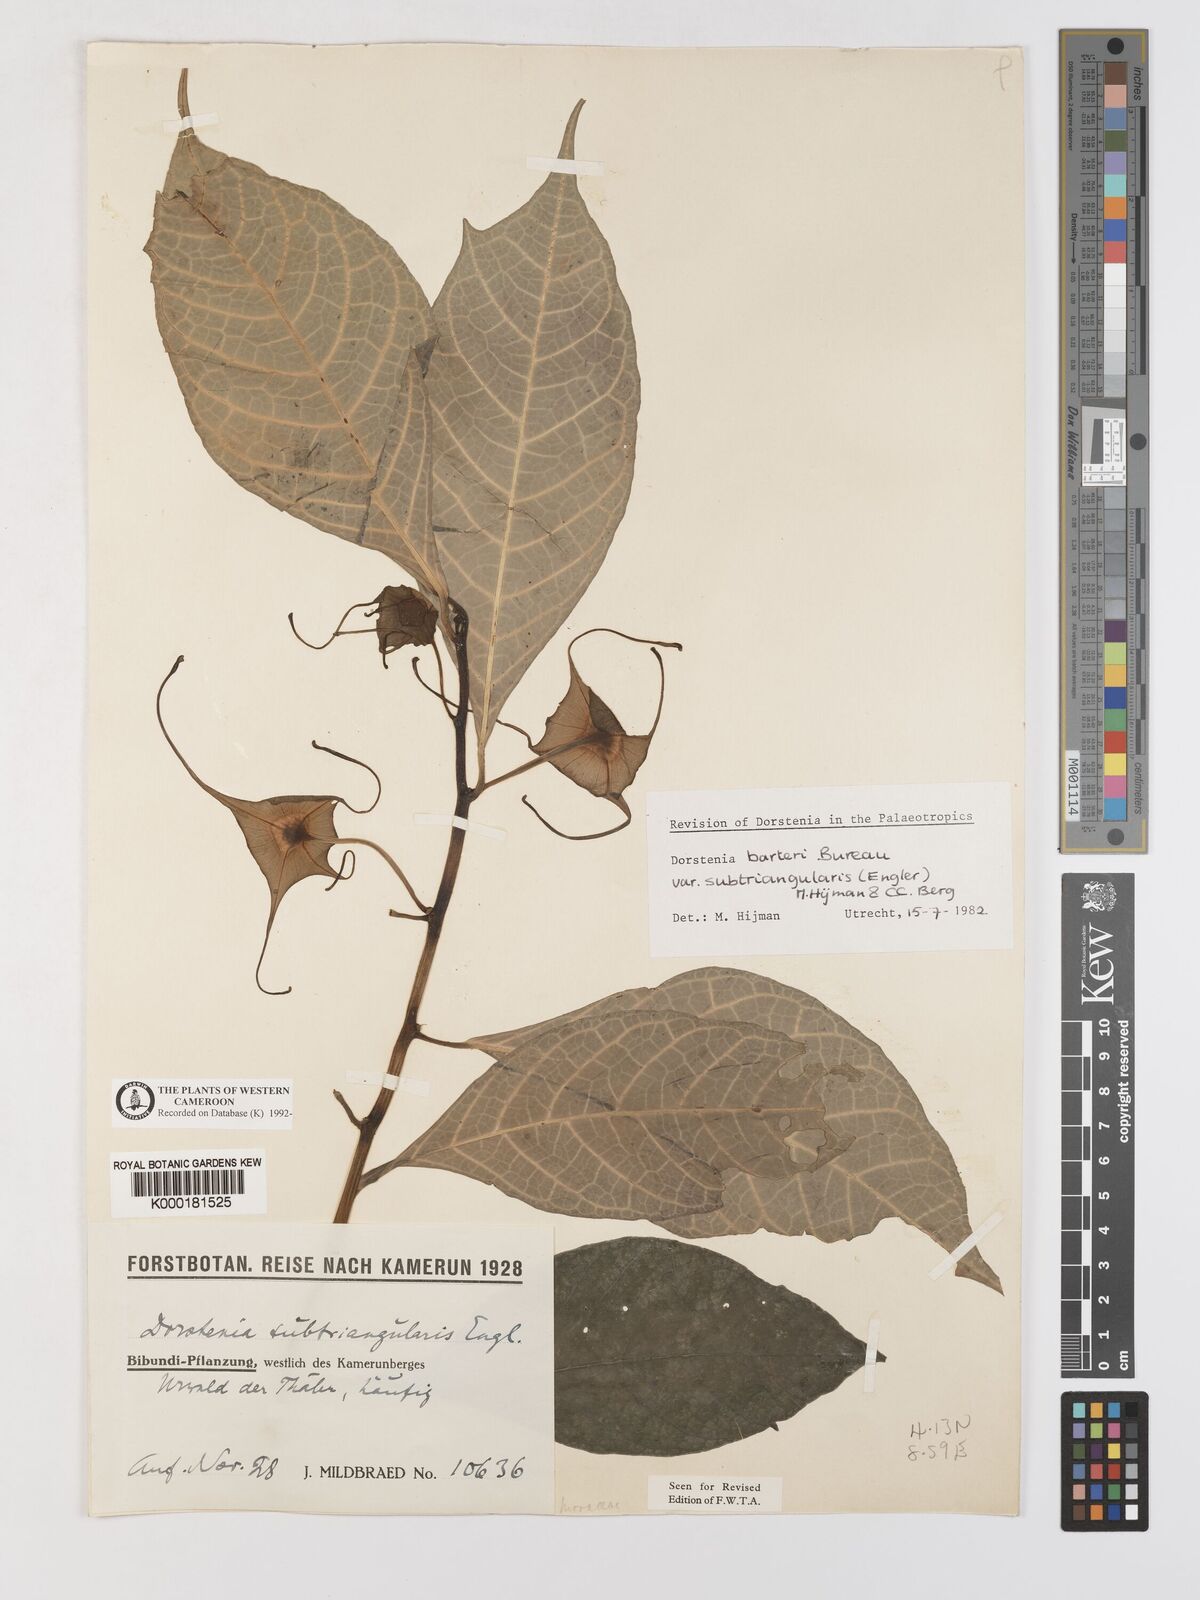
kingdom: Plantae
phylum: Tracheophyta
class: Magnoliopsida
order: Rosales
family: Moraceae
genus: Dorstenia
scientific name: Dorstenia barteri
